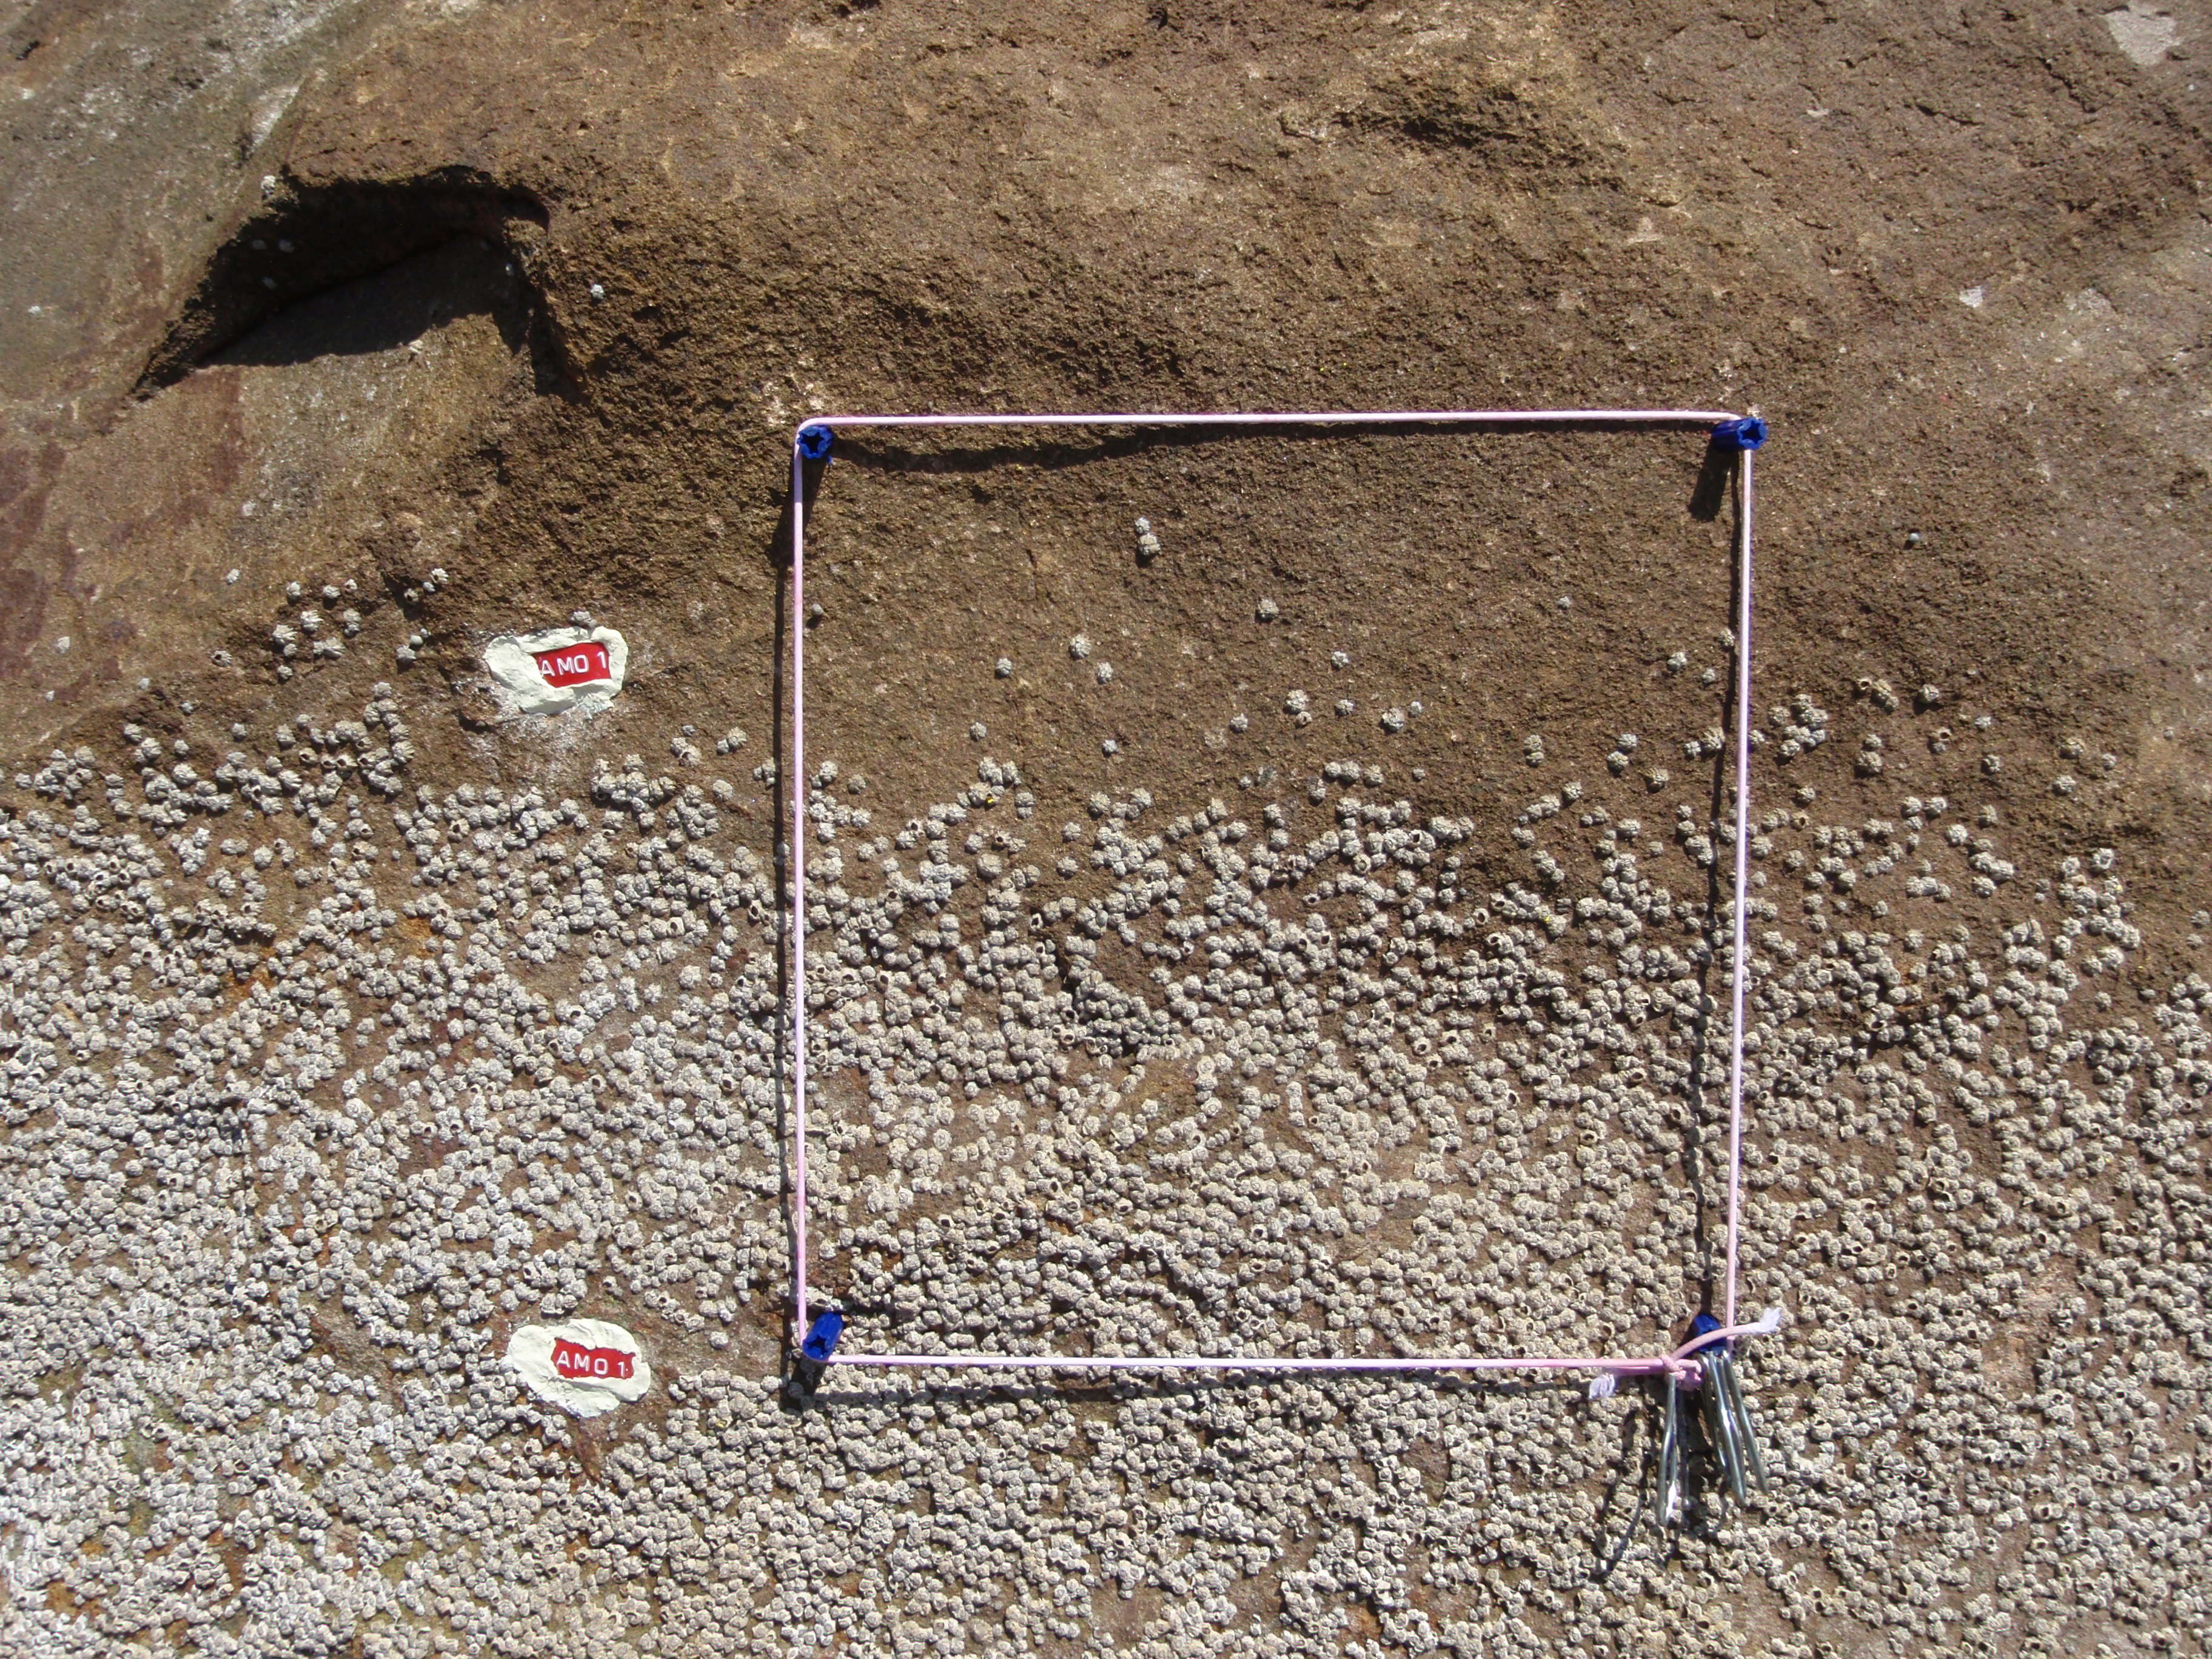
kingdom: Animalia
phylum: Arthropoda
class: Maxillopoda
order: Sessilia
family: Chthamalidae
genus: Chthamalus
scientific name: Chthamalus challengeri
